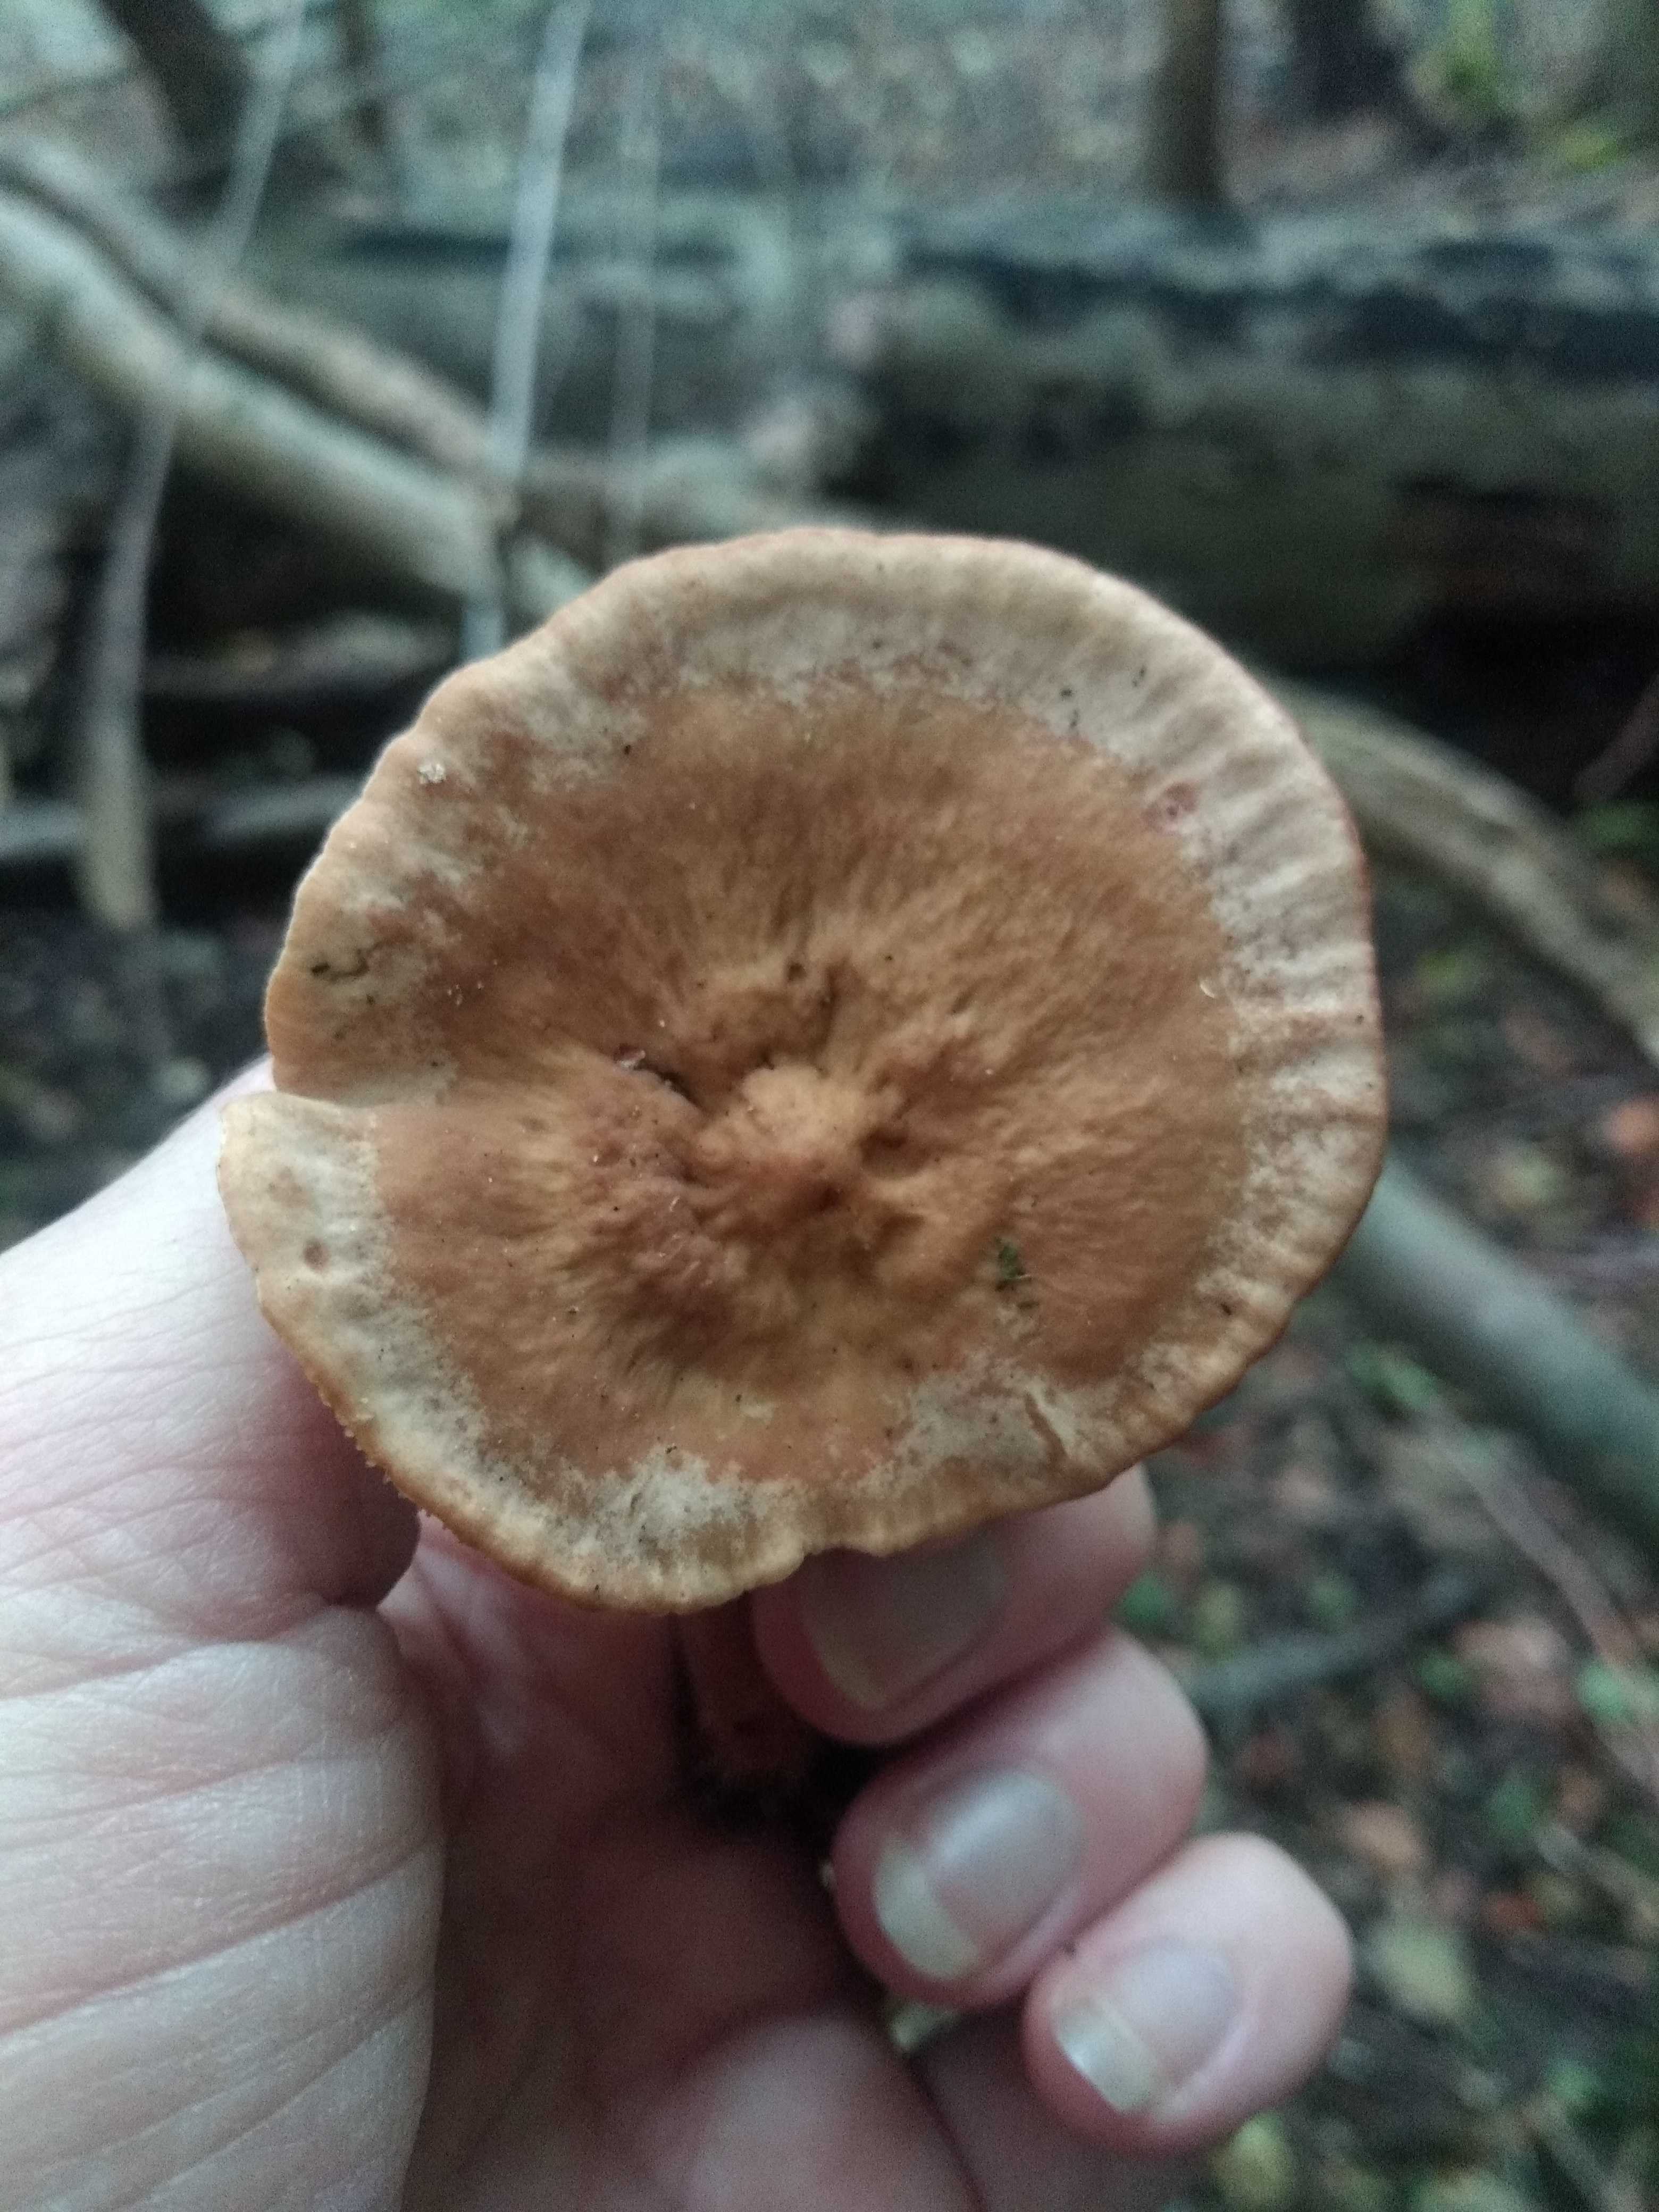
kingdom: Fungi
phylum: Basidiomycota
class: Agaricomycetes
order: Russulales
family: Russulaceae
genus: Lactarius
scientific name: Lactarius
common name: mælkehat
